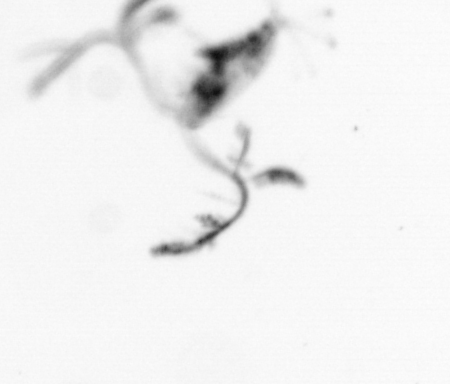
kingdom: Animalia
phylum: Arthropoda
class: Copepoda
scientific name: Copepoda
